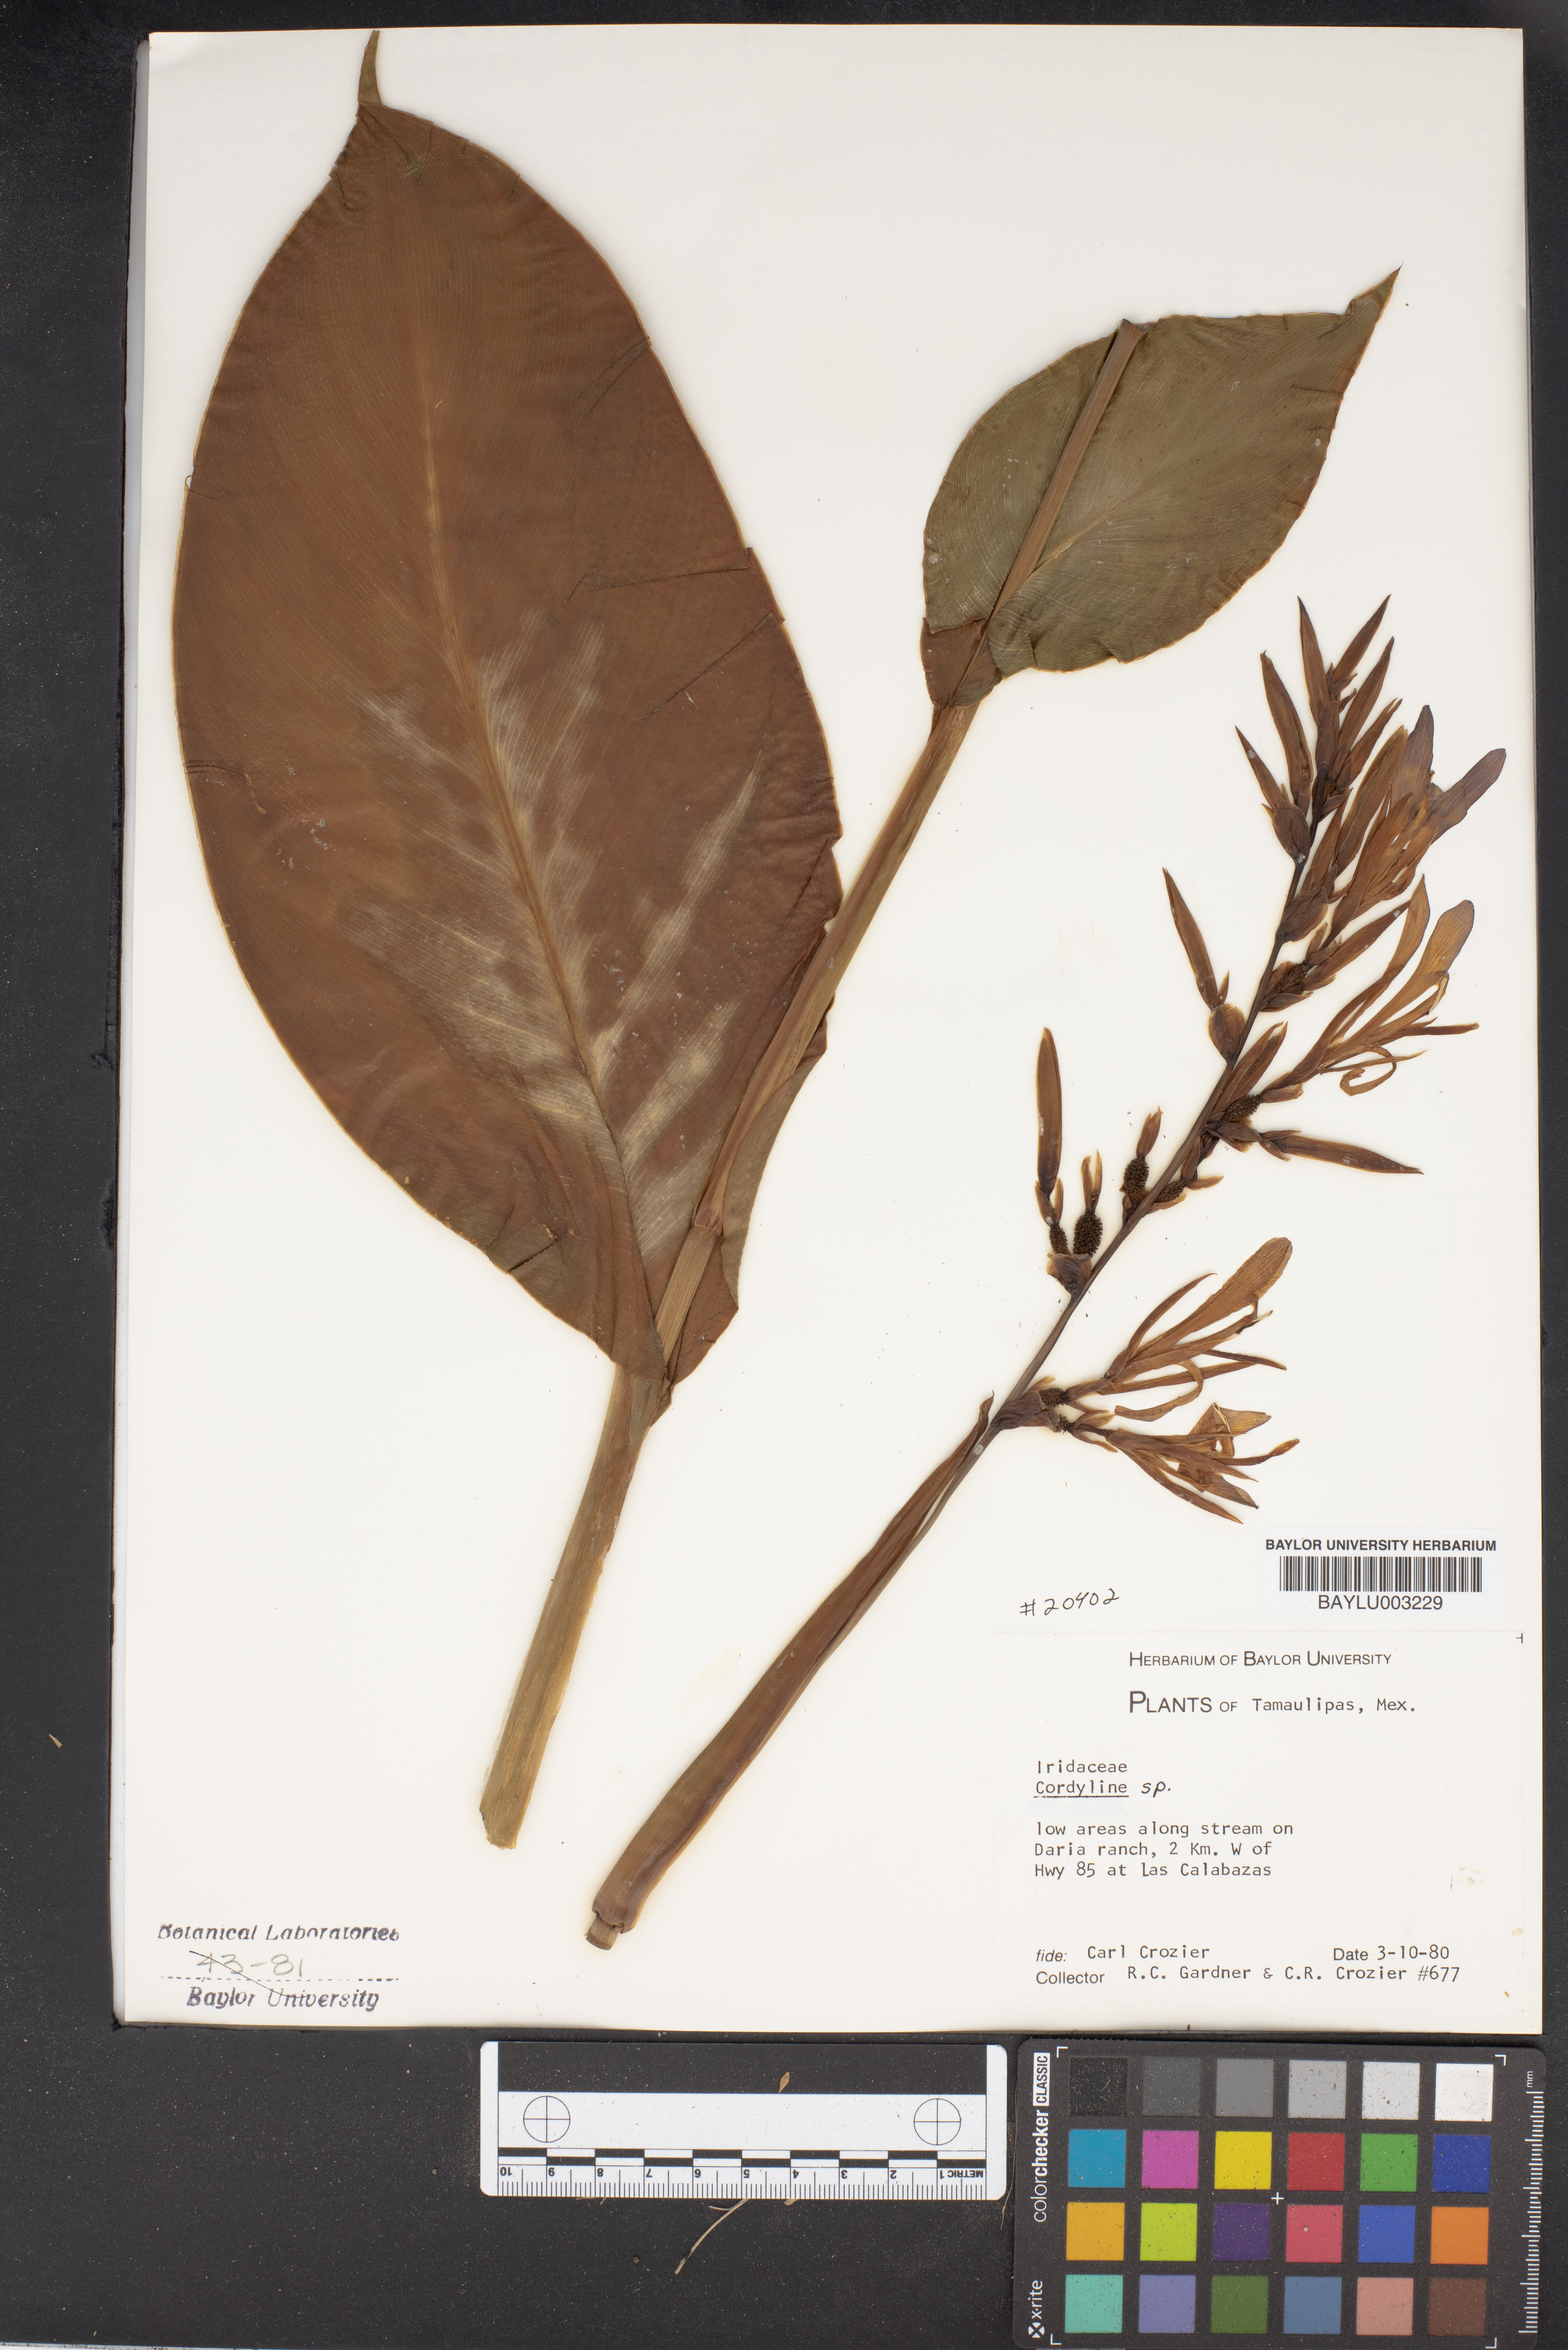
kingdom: Plantae
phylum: Tracheophyta
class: Liliopsida
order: Asparagales
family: Iridaceae
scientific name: Iridaceae
